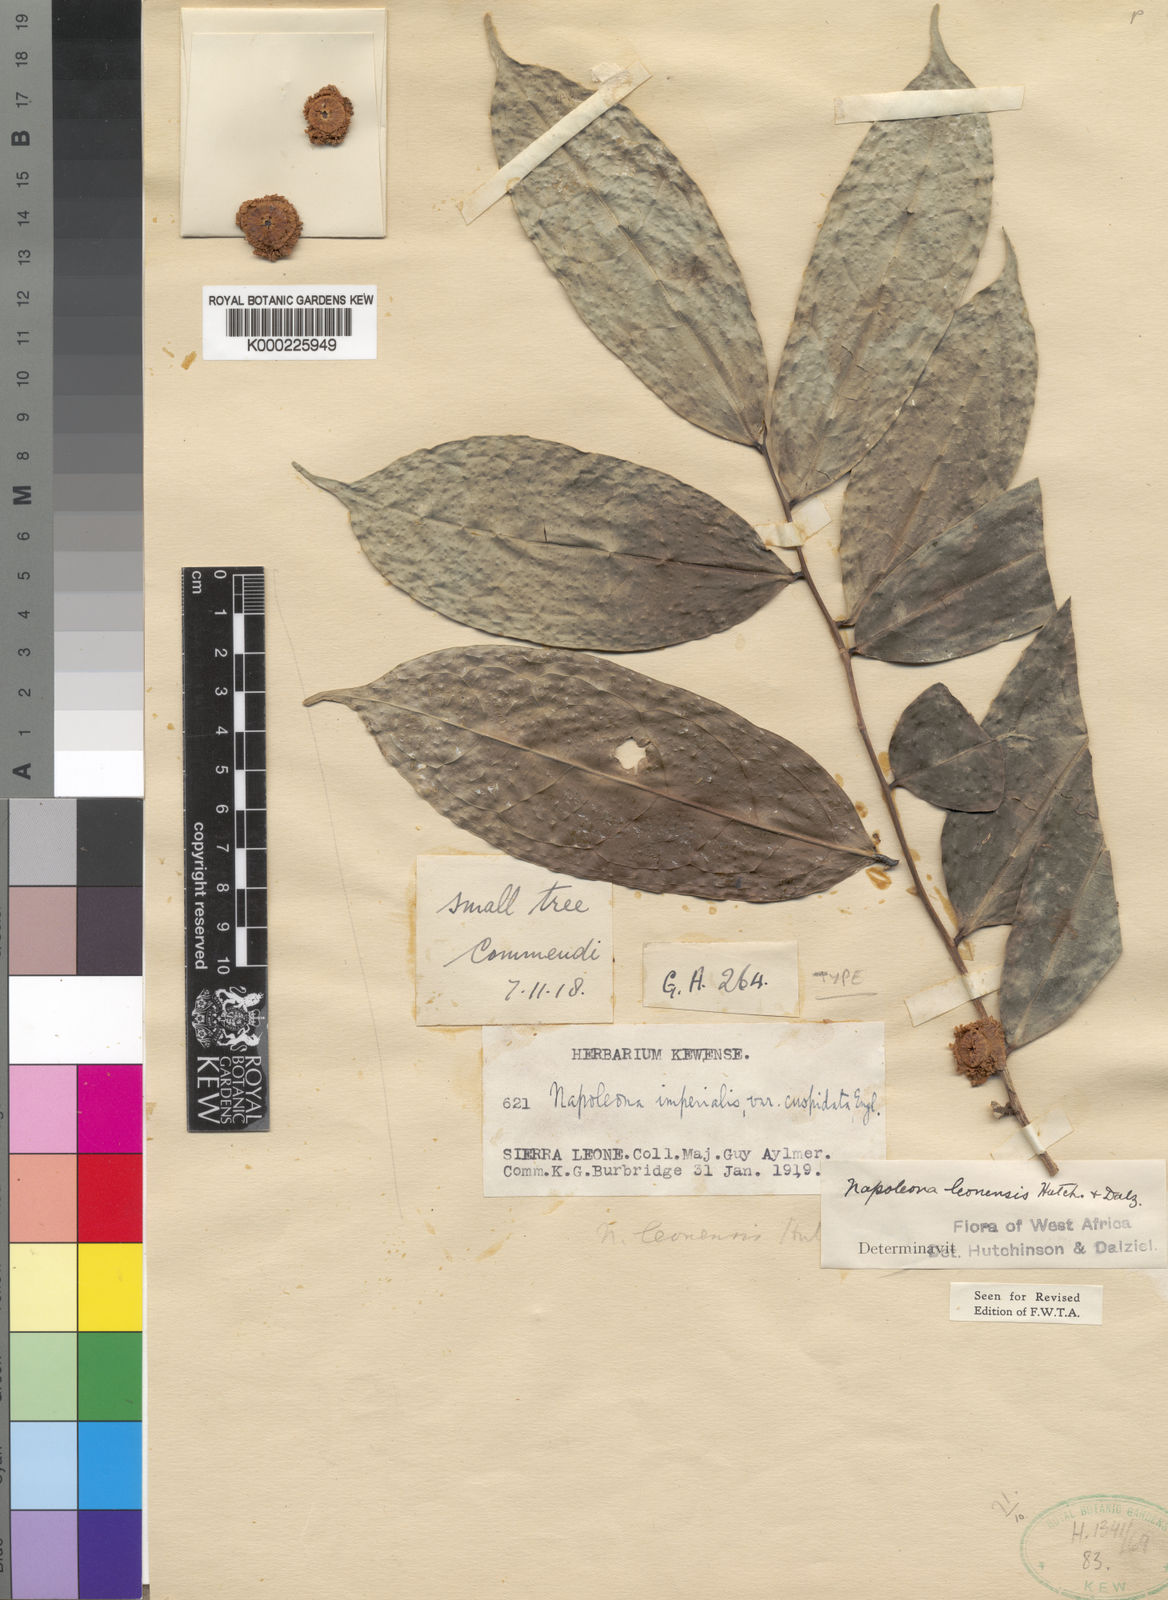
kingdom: Plantae
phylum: Tracheophyta
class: Magnoliopsida
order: Ericales
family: Lecythidaceae
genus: Napoleonaea
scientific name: Napoleonaea leonensis
